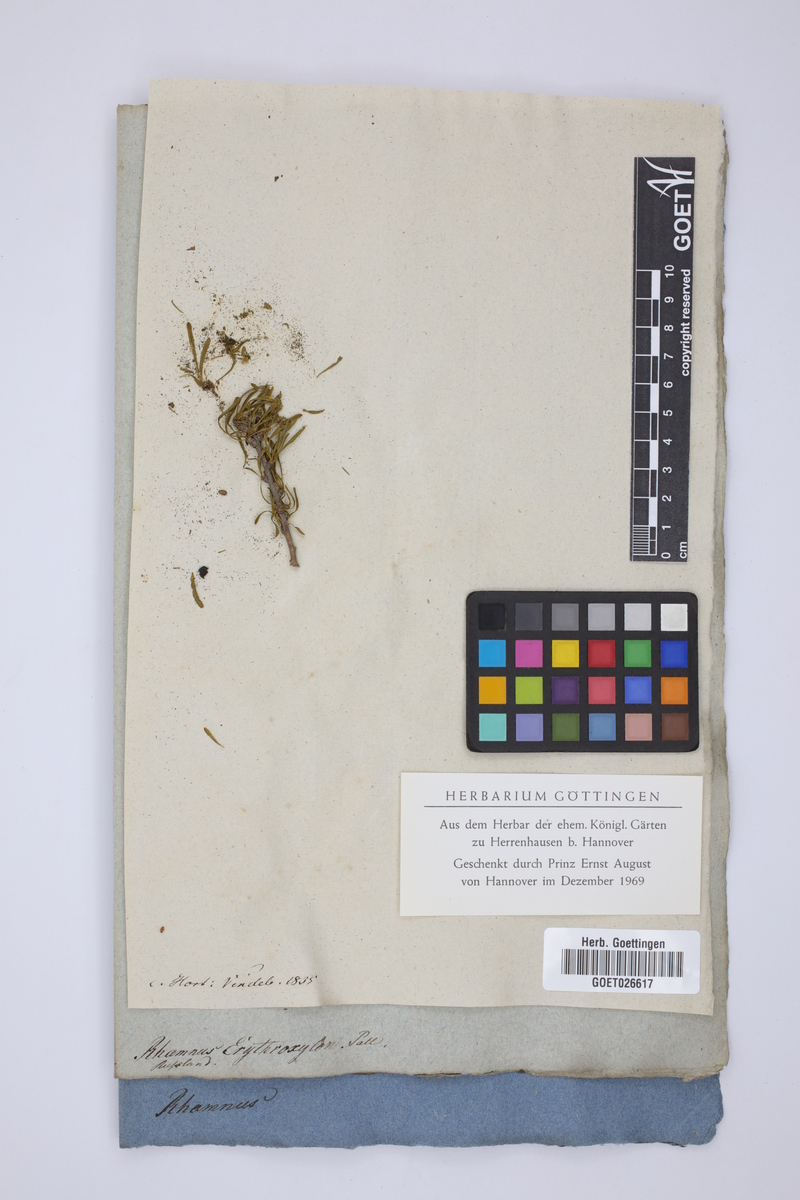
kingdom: Plantae
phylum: Tracheophyta
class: Magnoliopsida
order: Rosales
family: Rhamnaceae
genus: Rhamnus
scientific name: Rhamnus erythroxylum
